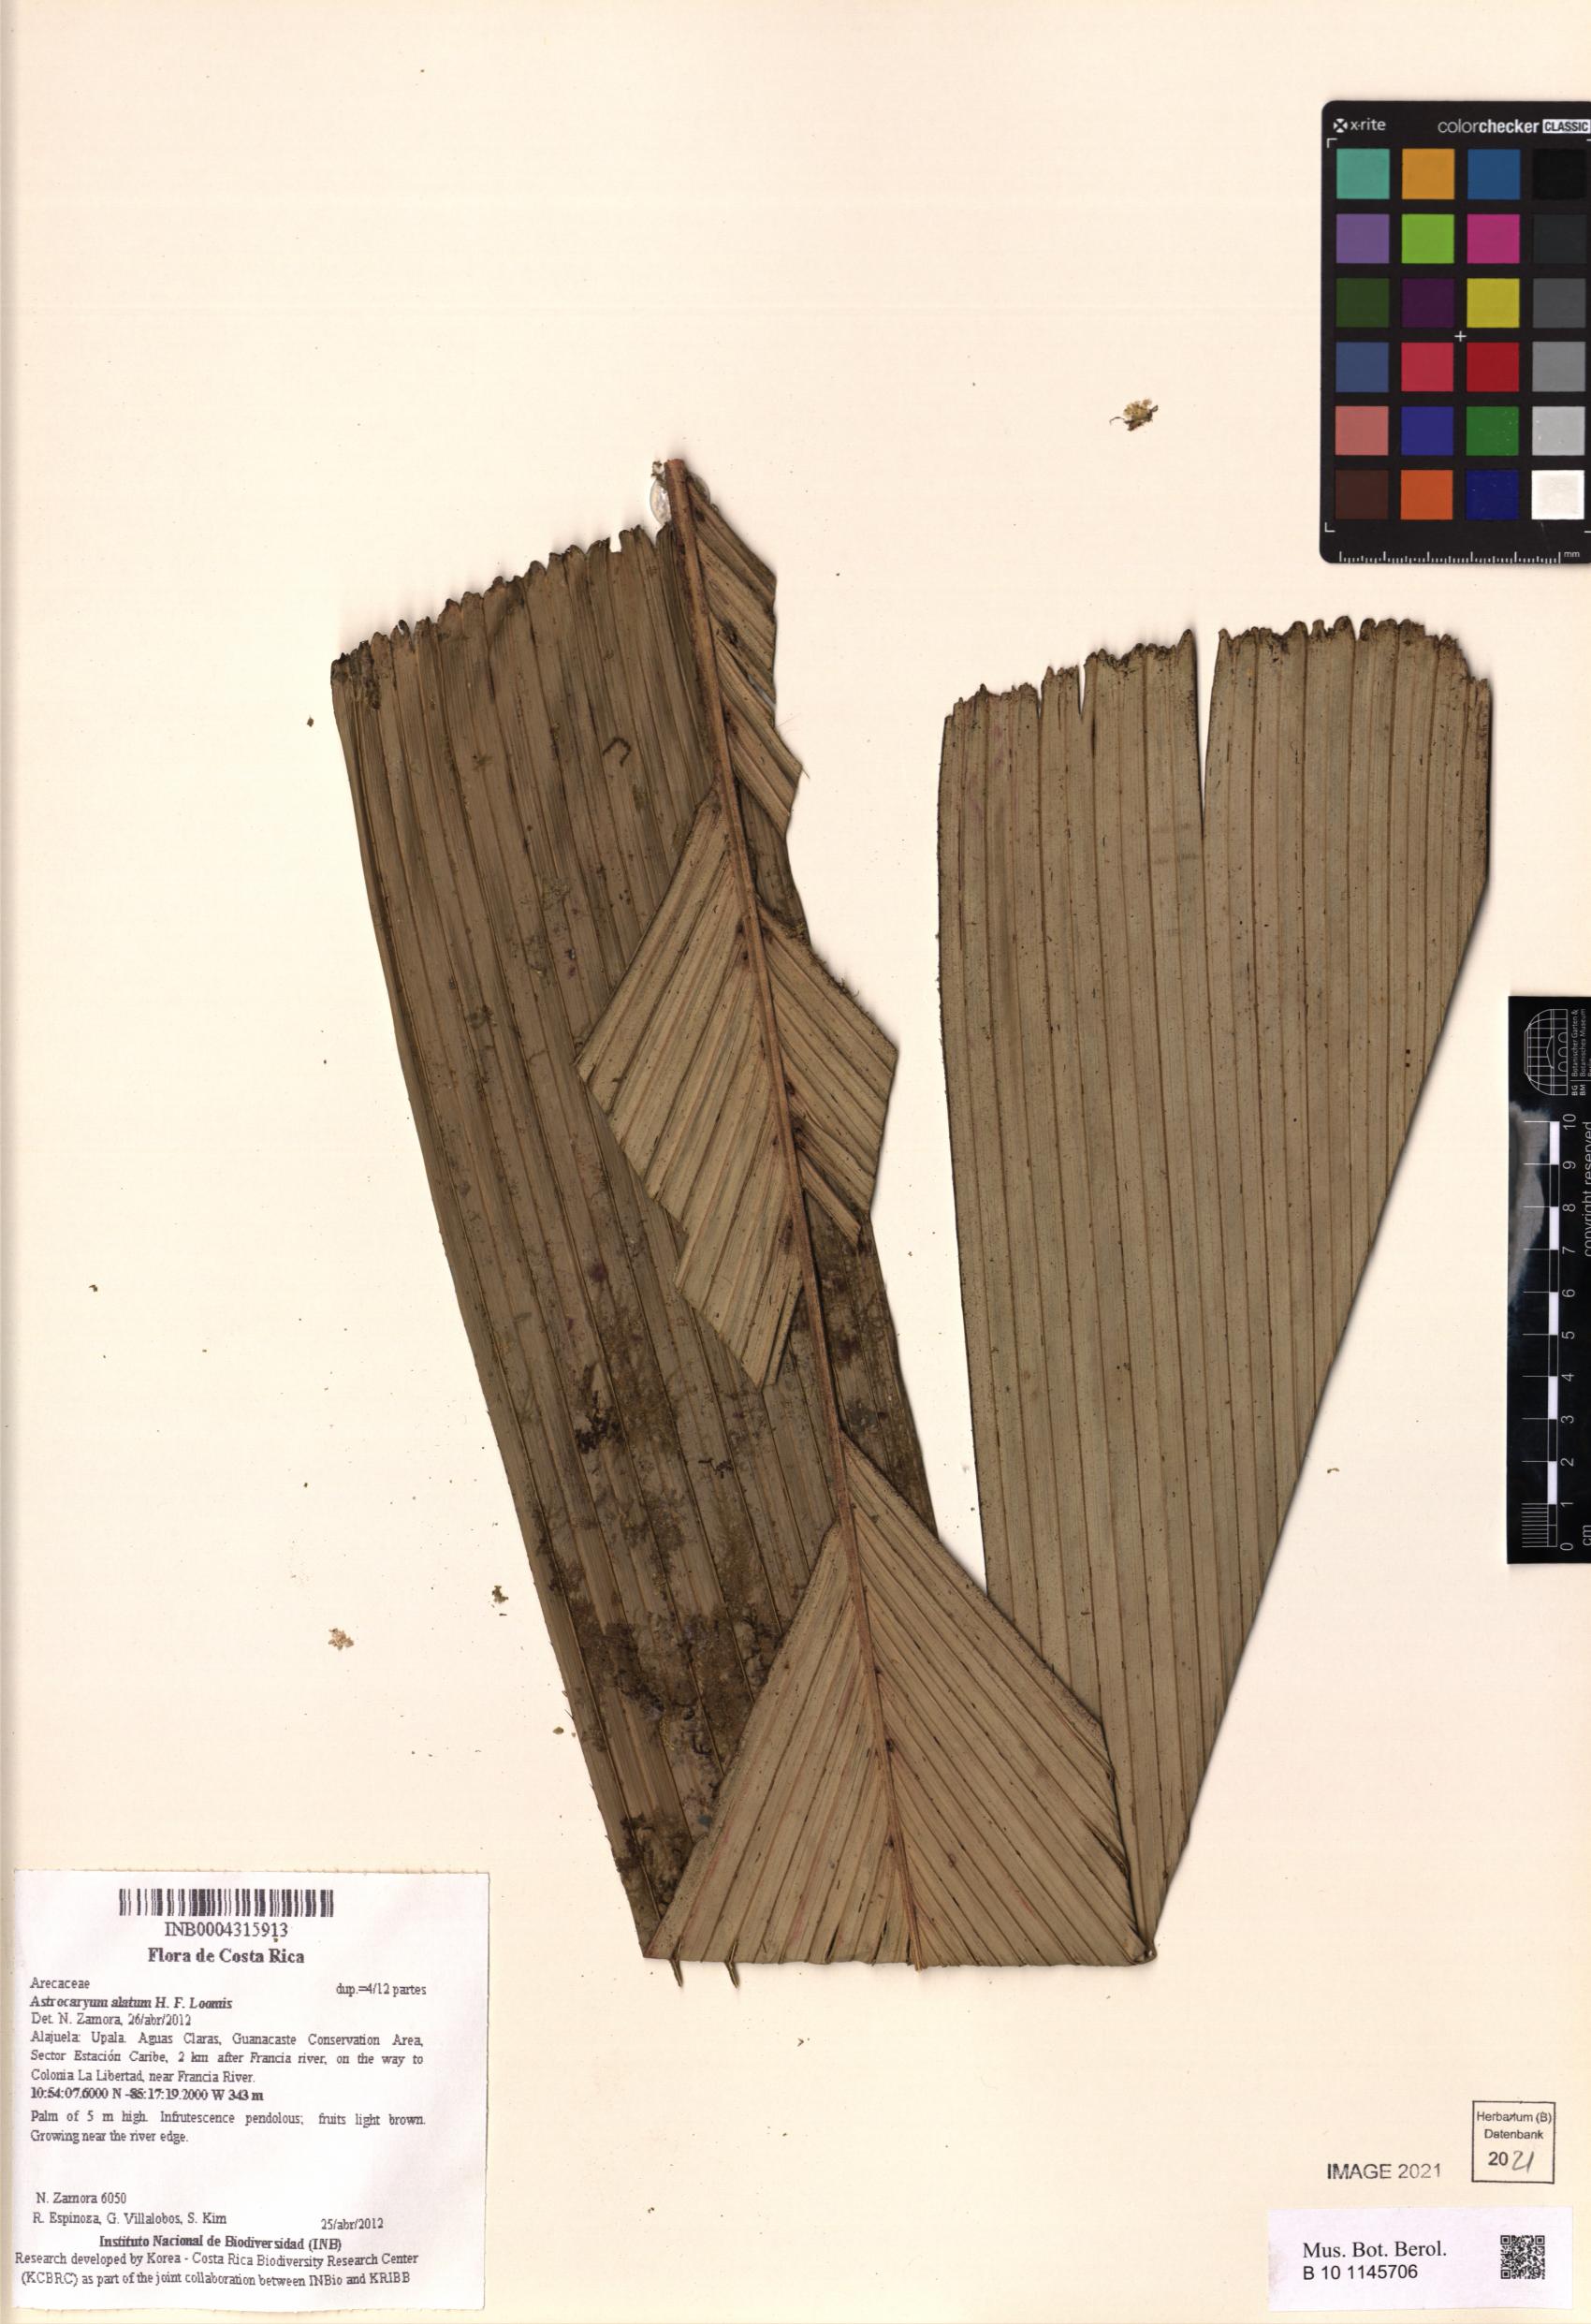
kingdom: Plantae
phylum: Tracheophyta
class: Liliopsida
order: Arecales
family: Arecaceae
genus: Astrocaryum
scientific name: Astrocaryum alatum
